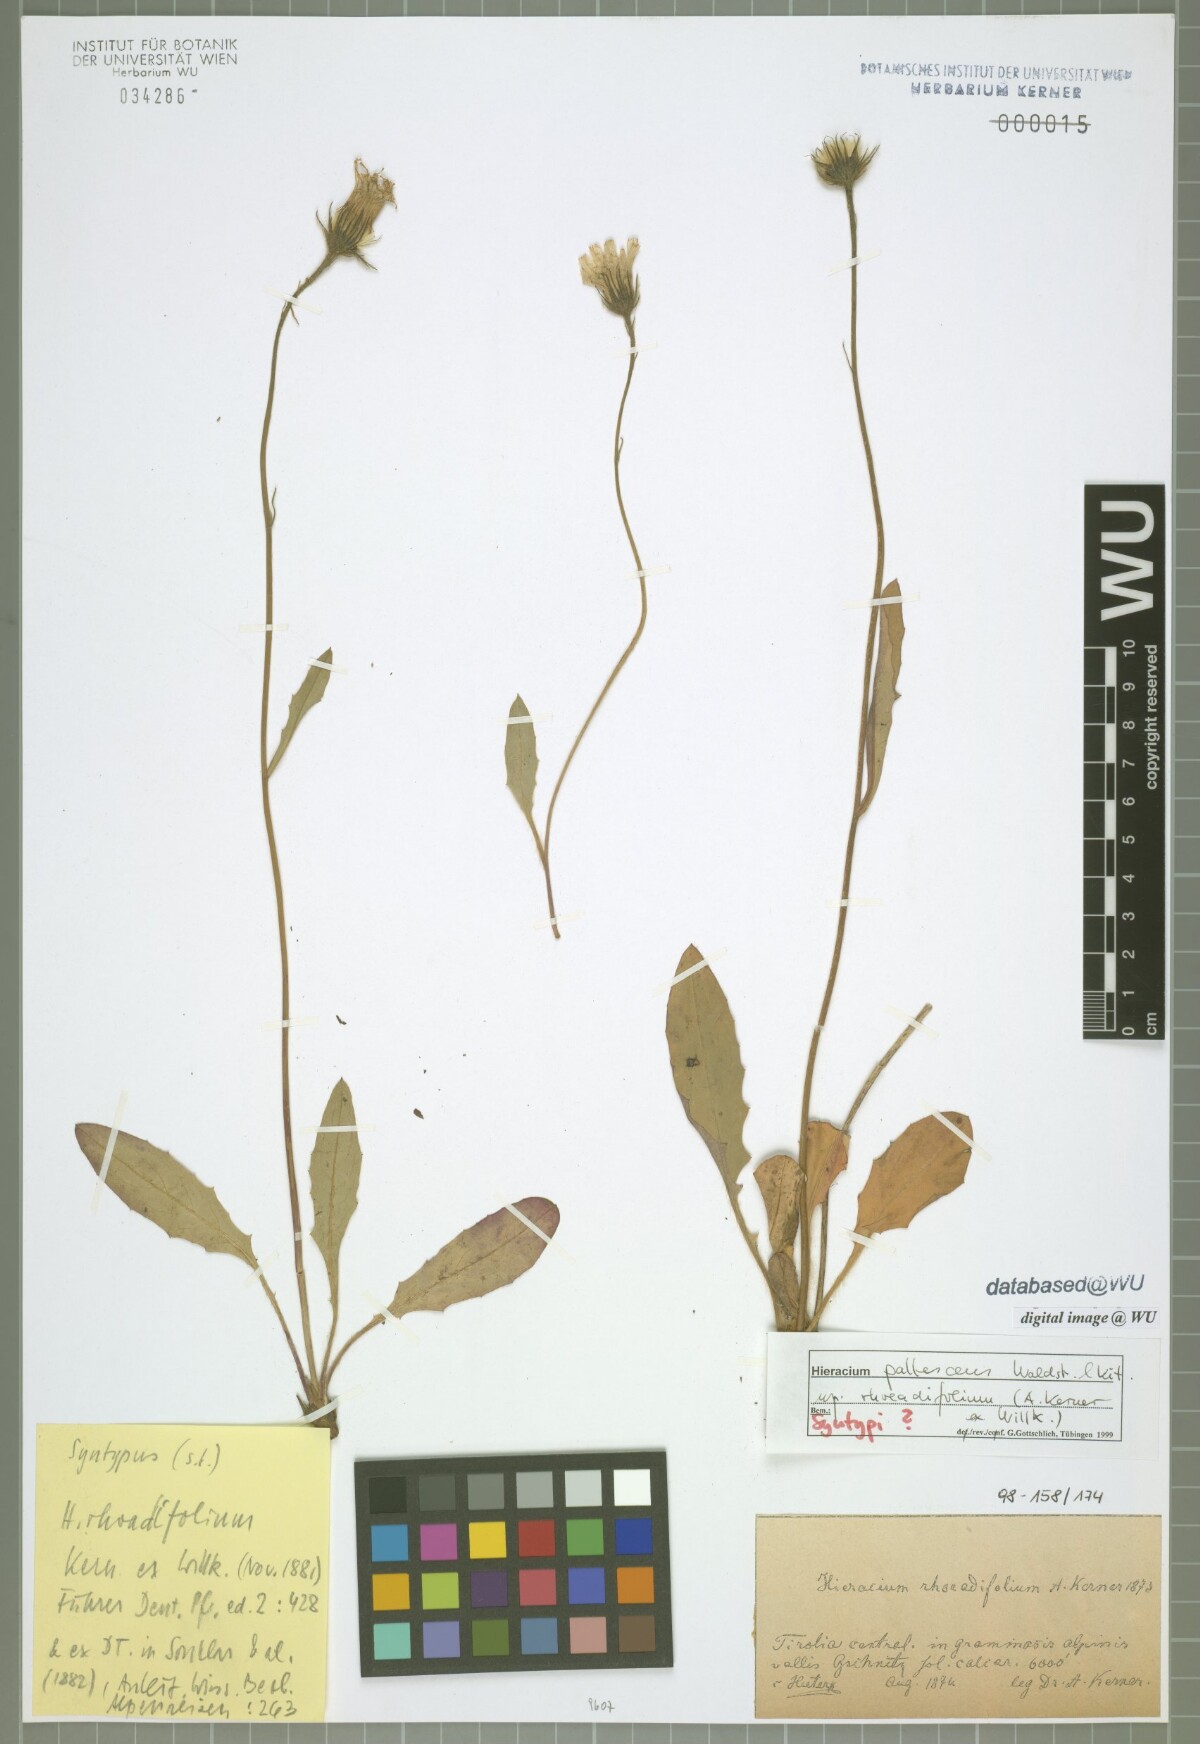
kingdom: Plantae
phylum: Tracheophyta
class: Magnoliopsida
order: Asterales
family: Asteraceae
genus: Hieracium
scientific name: Hieracium pallescens
